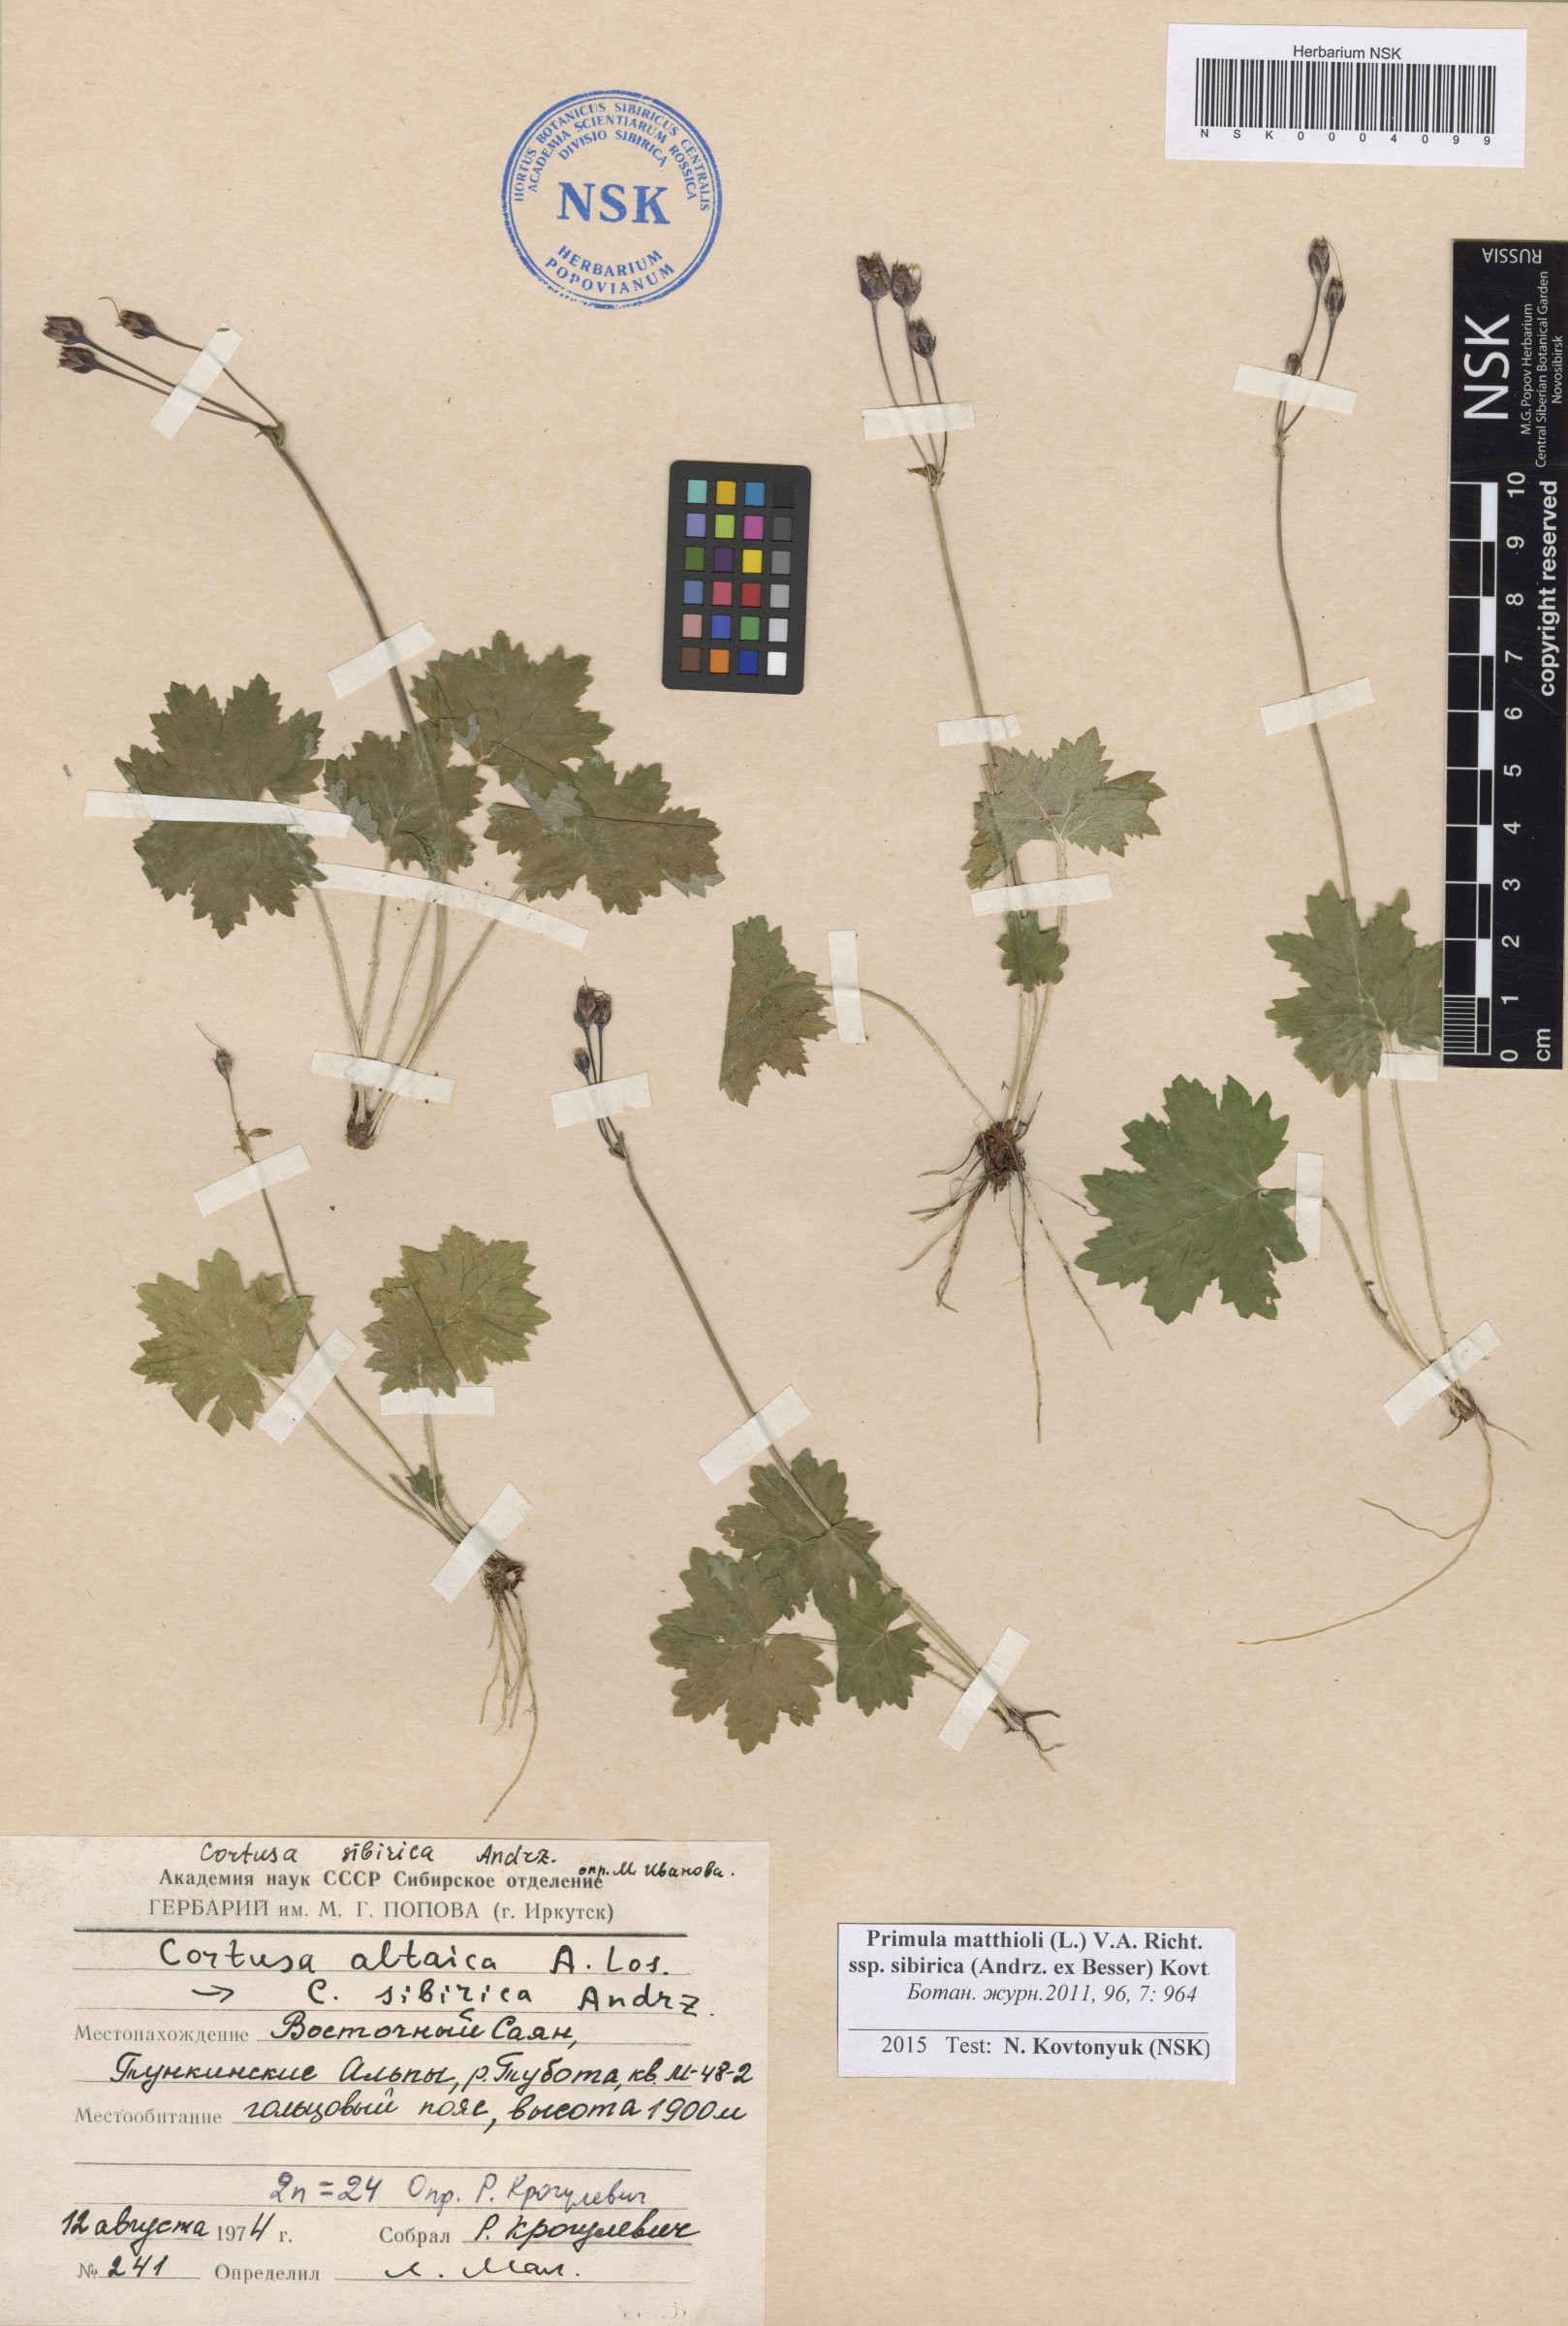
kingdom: Plantae
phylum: Tracheophyta
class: Magnoliopsida
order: Ericales
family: Primulaceae
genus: Primula
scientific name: Primula matthioli
